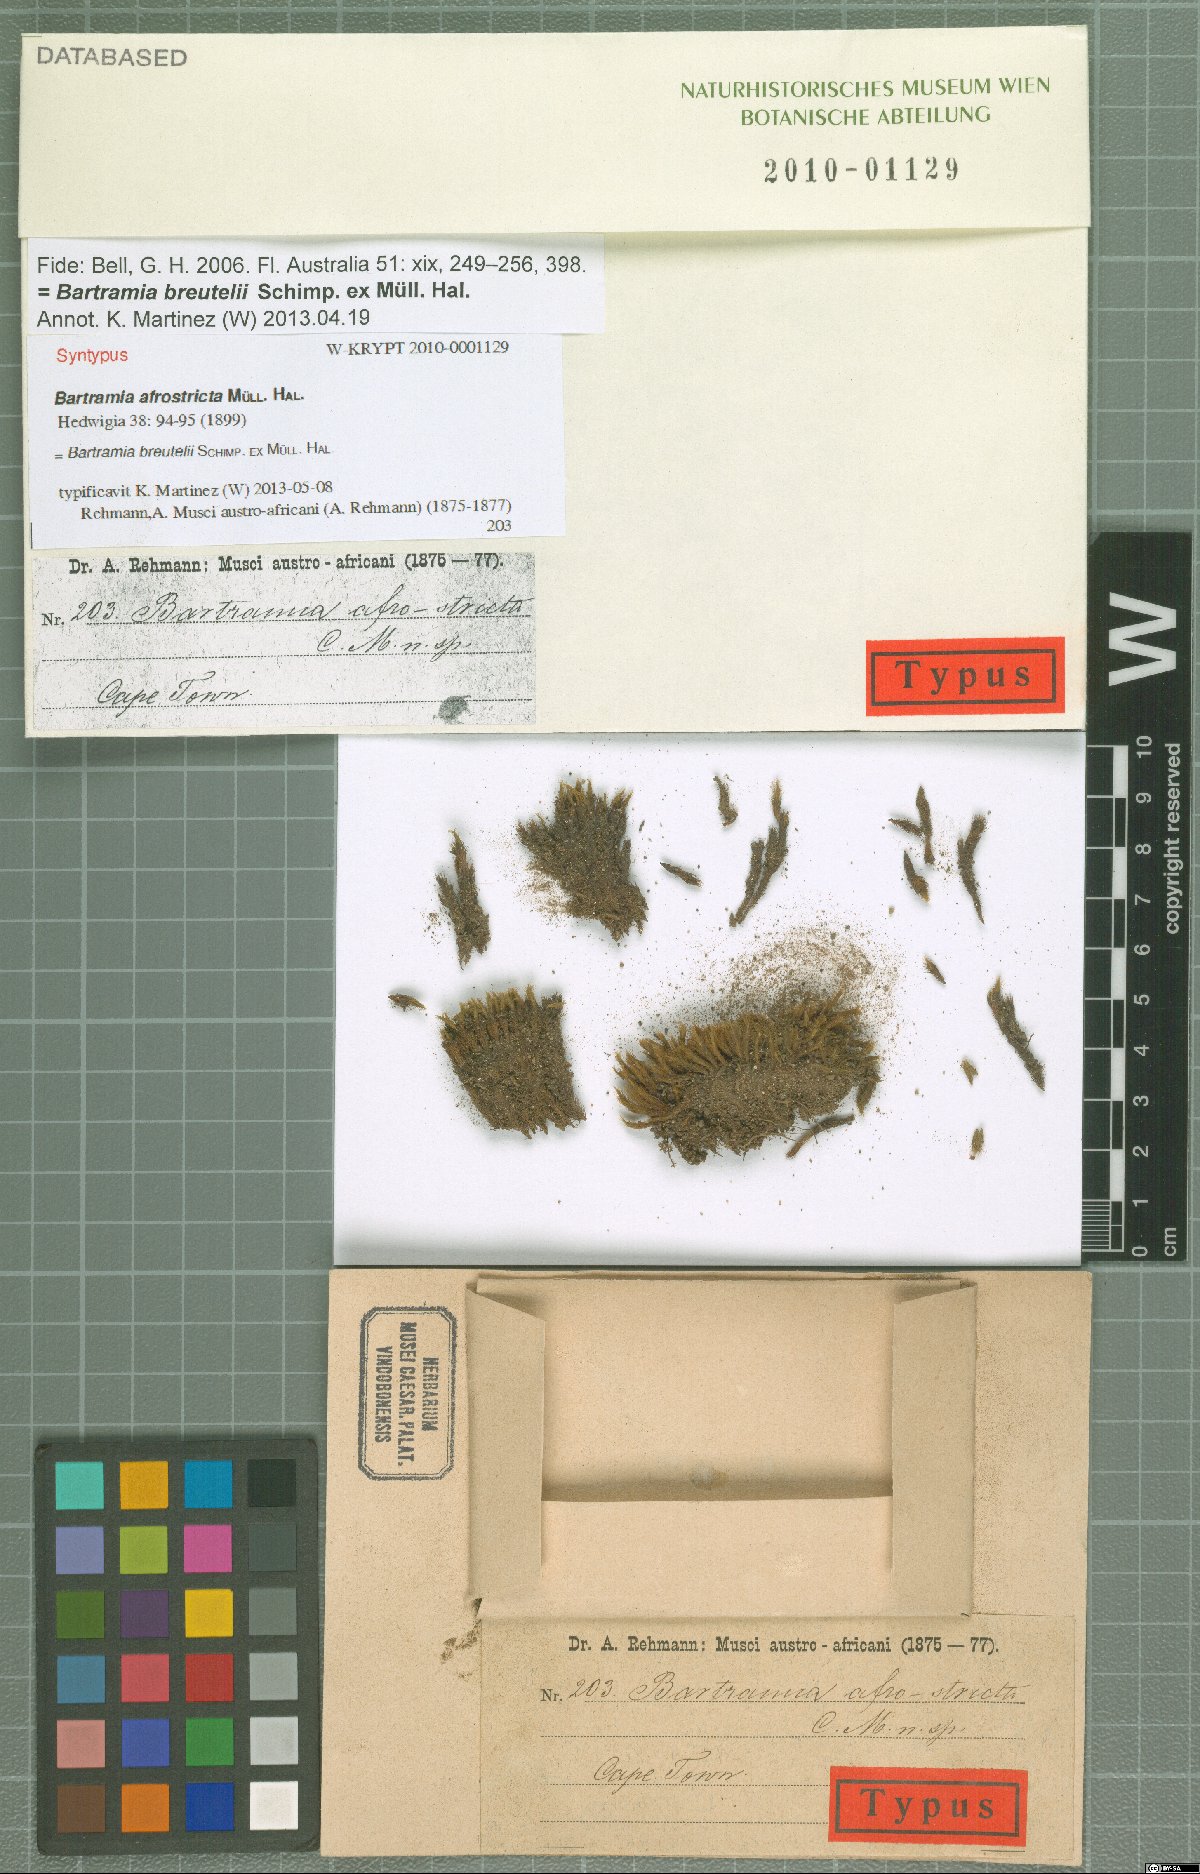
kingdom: Plantae
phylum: Bryophyta
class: Bryopsida
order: Bartramiales
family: Bartramiaceae
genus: Anacolia
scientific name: Anacolia breutelii
